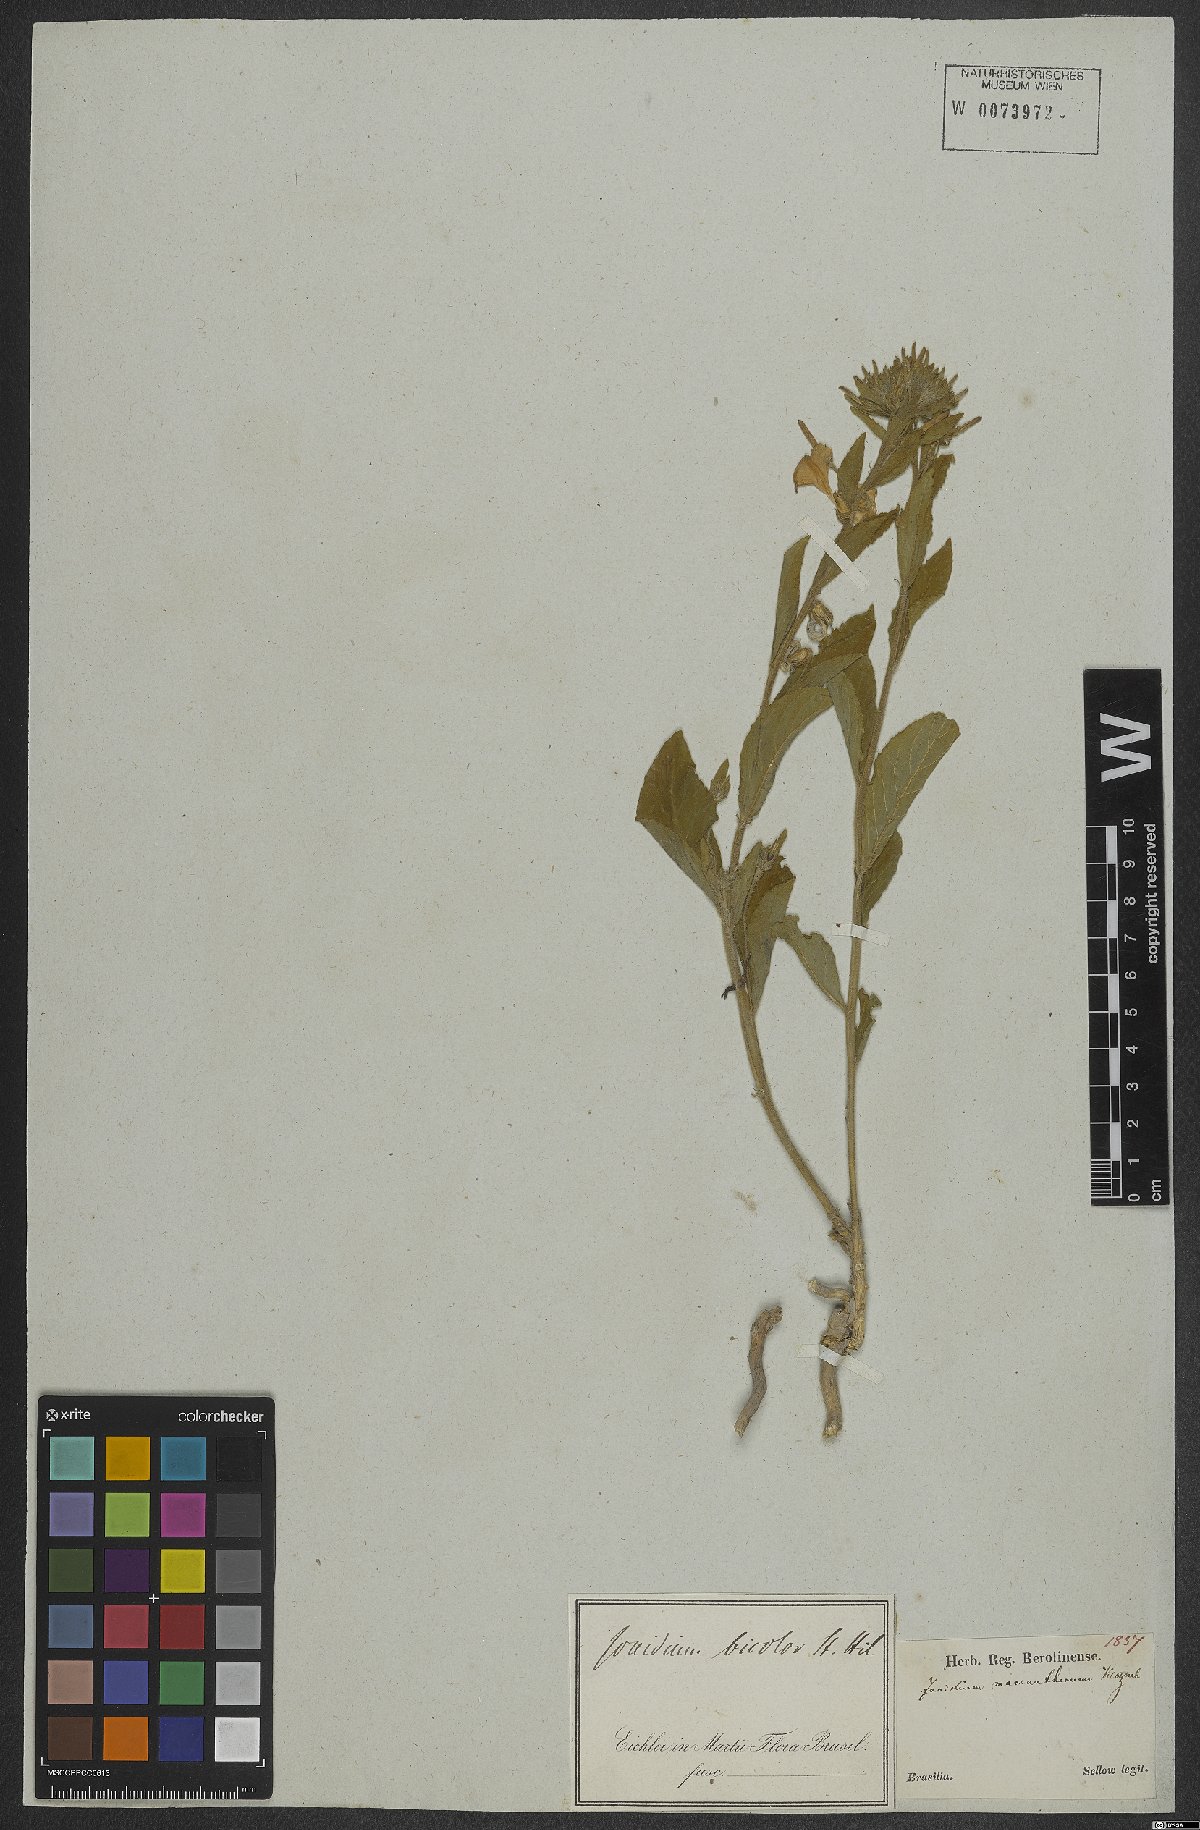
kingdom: Plantae
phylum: Tracheophyta
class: Magnoliopsida
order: Malpighiales
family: Violaceae
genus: Pombalia
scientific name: Pombalia bicolor
